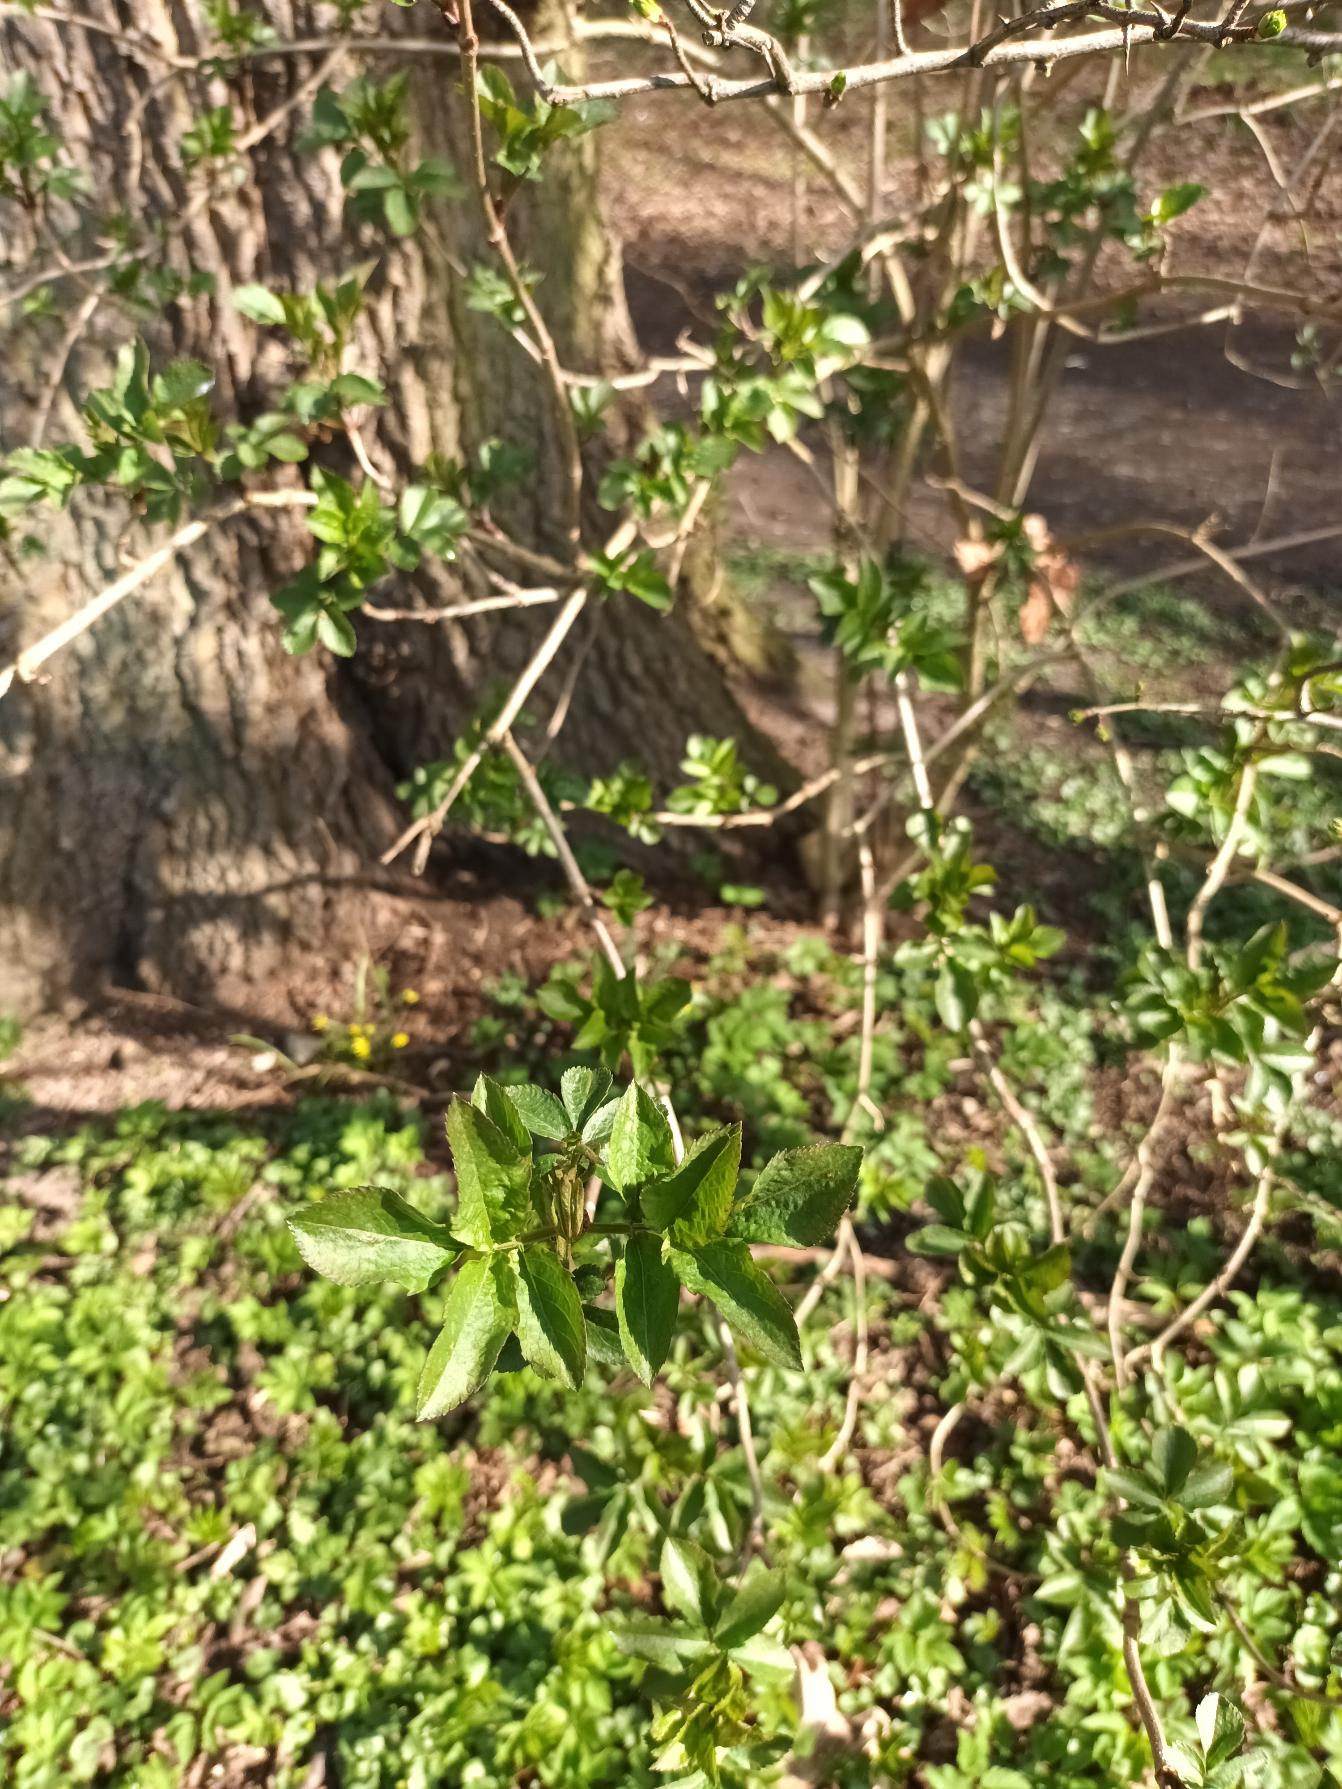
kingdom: Plantae
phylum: Tracheophyta
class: Magnoliopsida
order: Dipsacales
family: Viburnaceae
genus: Sambucus
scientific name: Sambucus nigra
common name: Almindelig hyld
